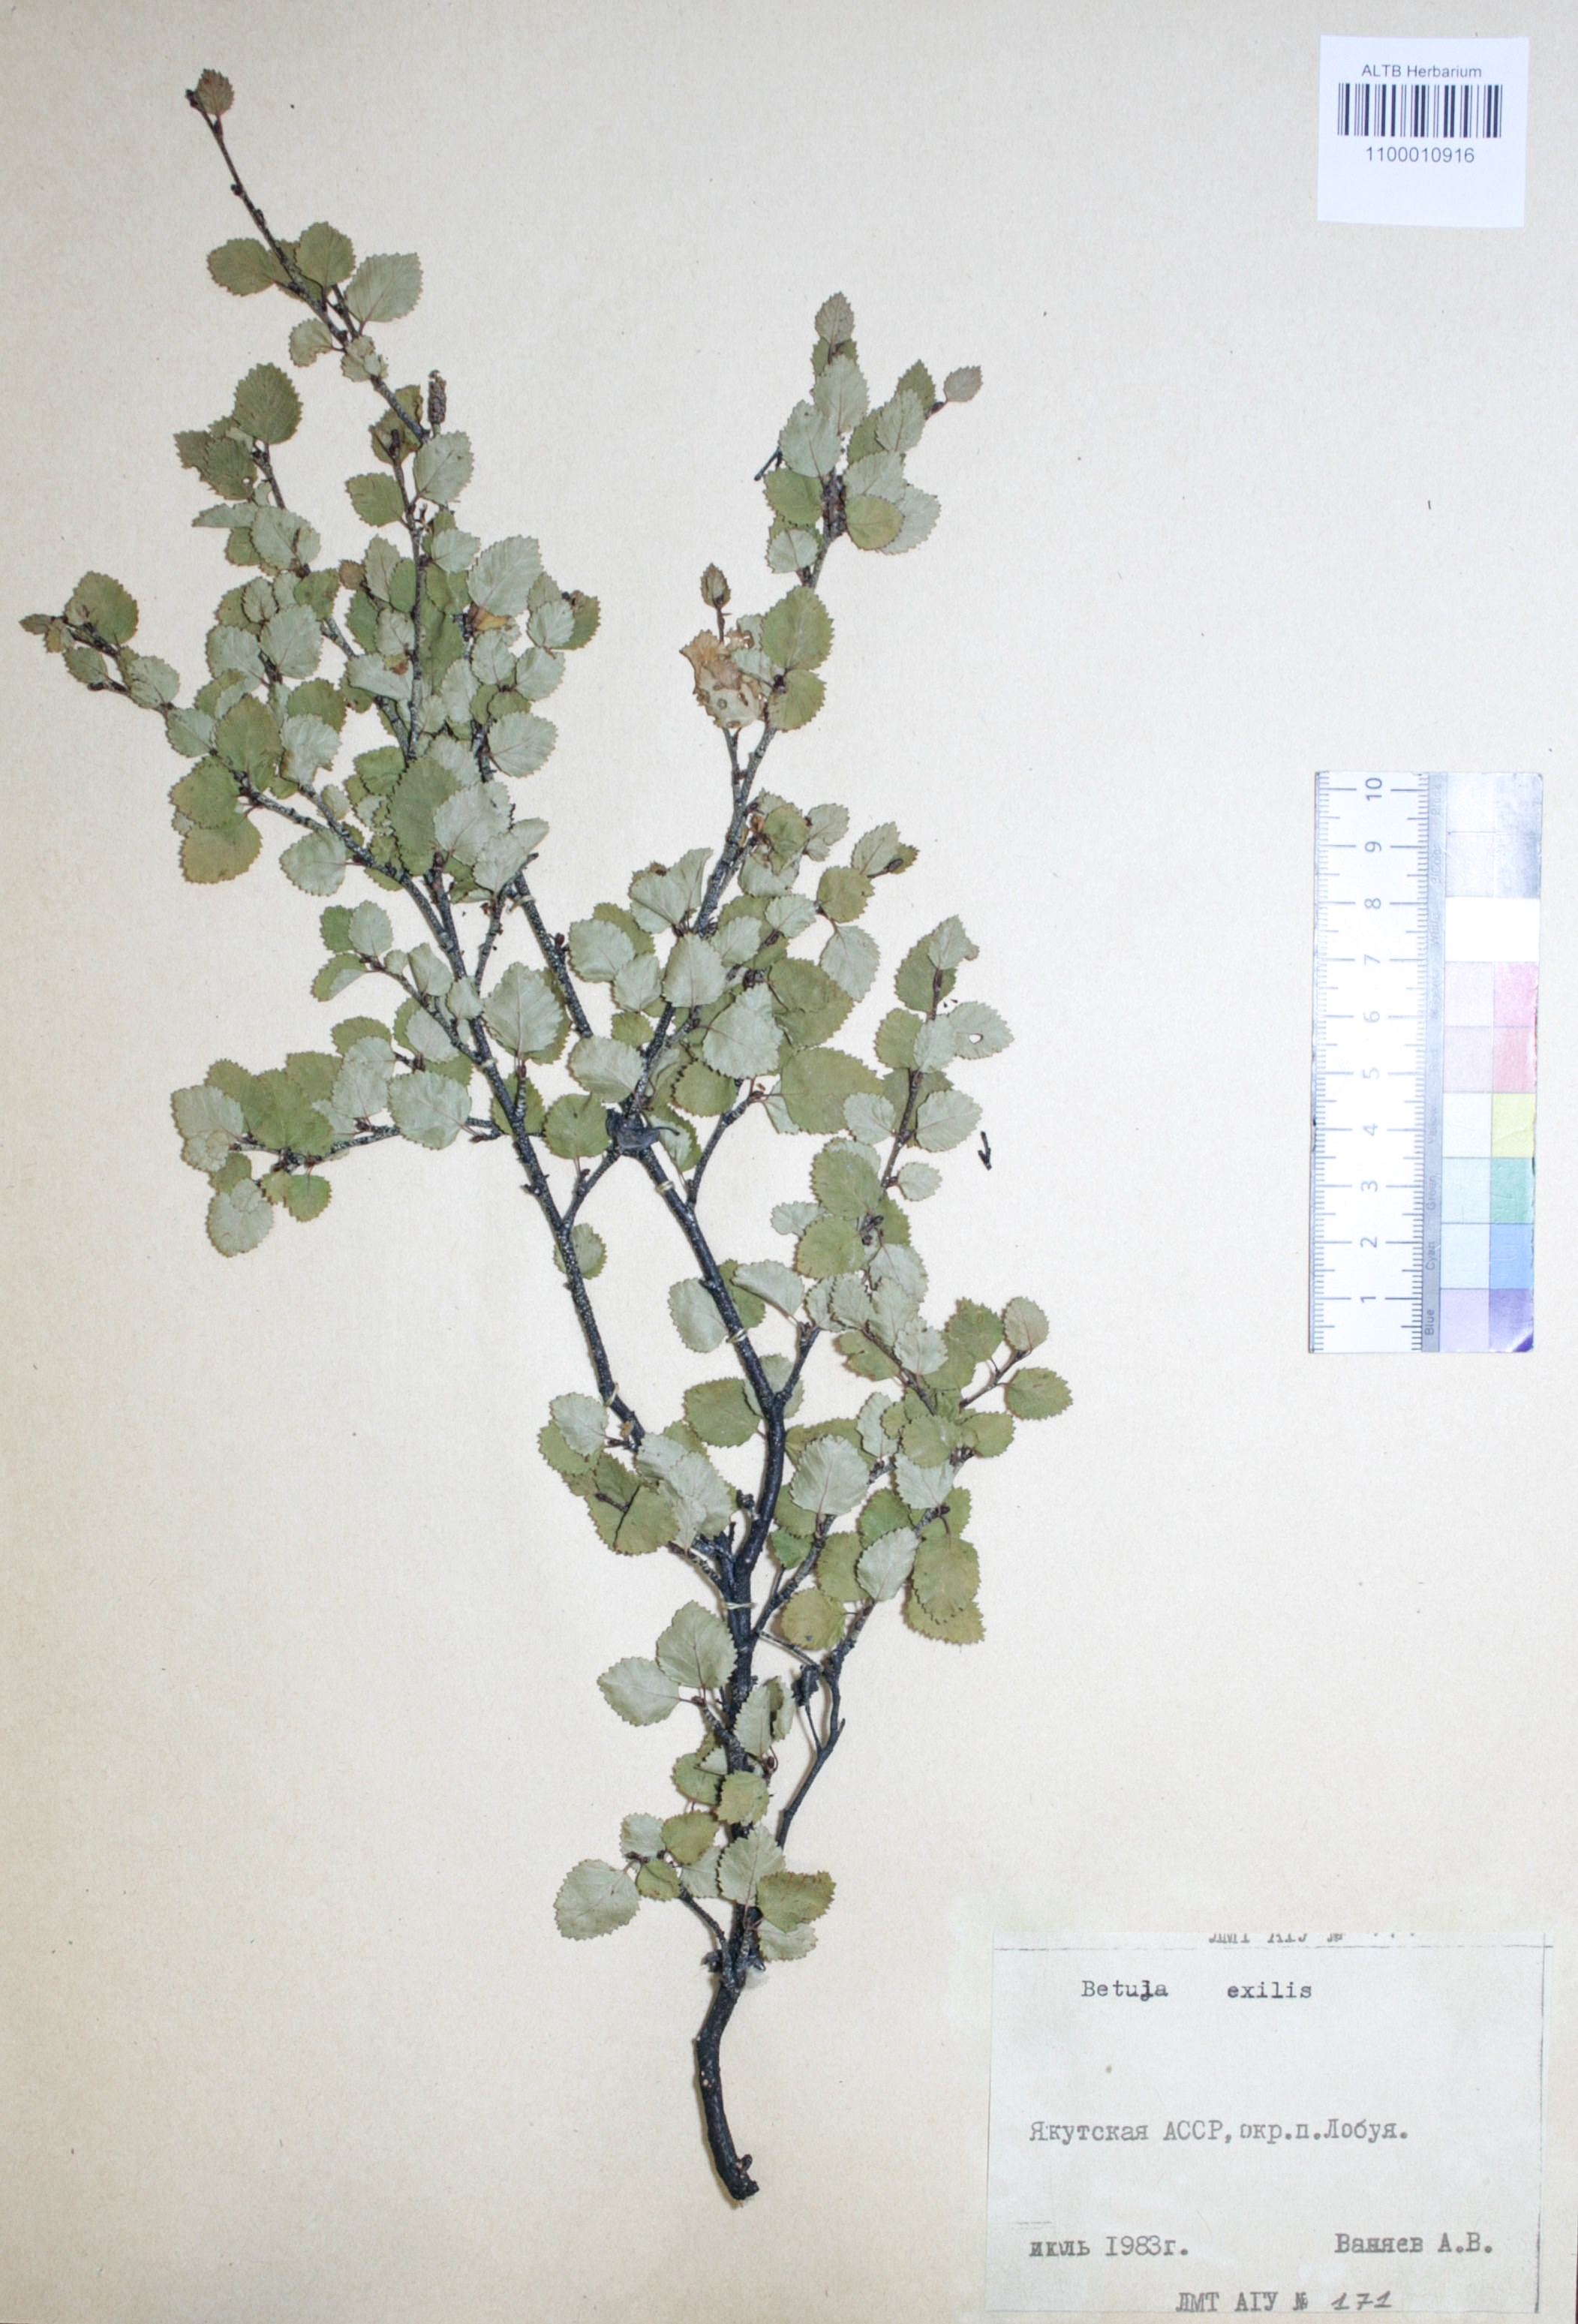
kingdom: Plantae
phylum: Tracheophyta
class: Magnoliopsida
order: Fagales
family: Betulaceae
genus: Betula
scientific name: Betula glandulosa
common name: Dwarf birch
